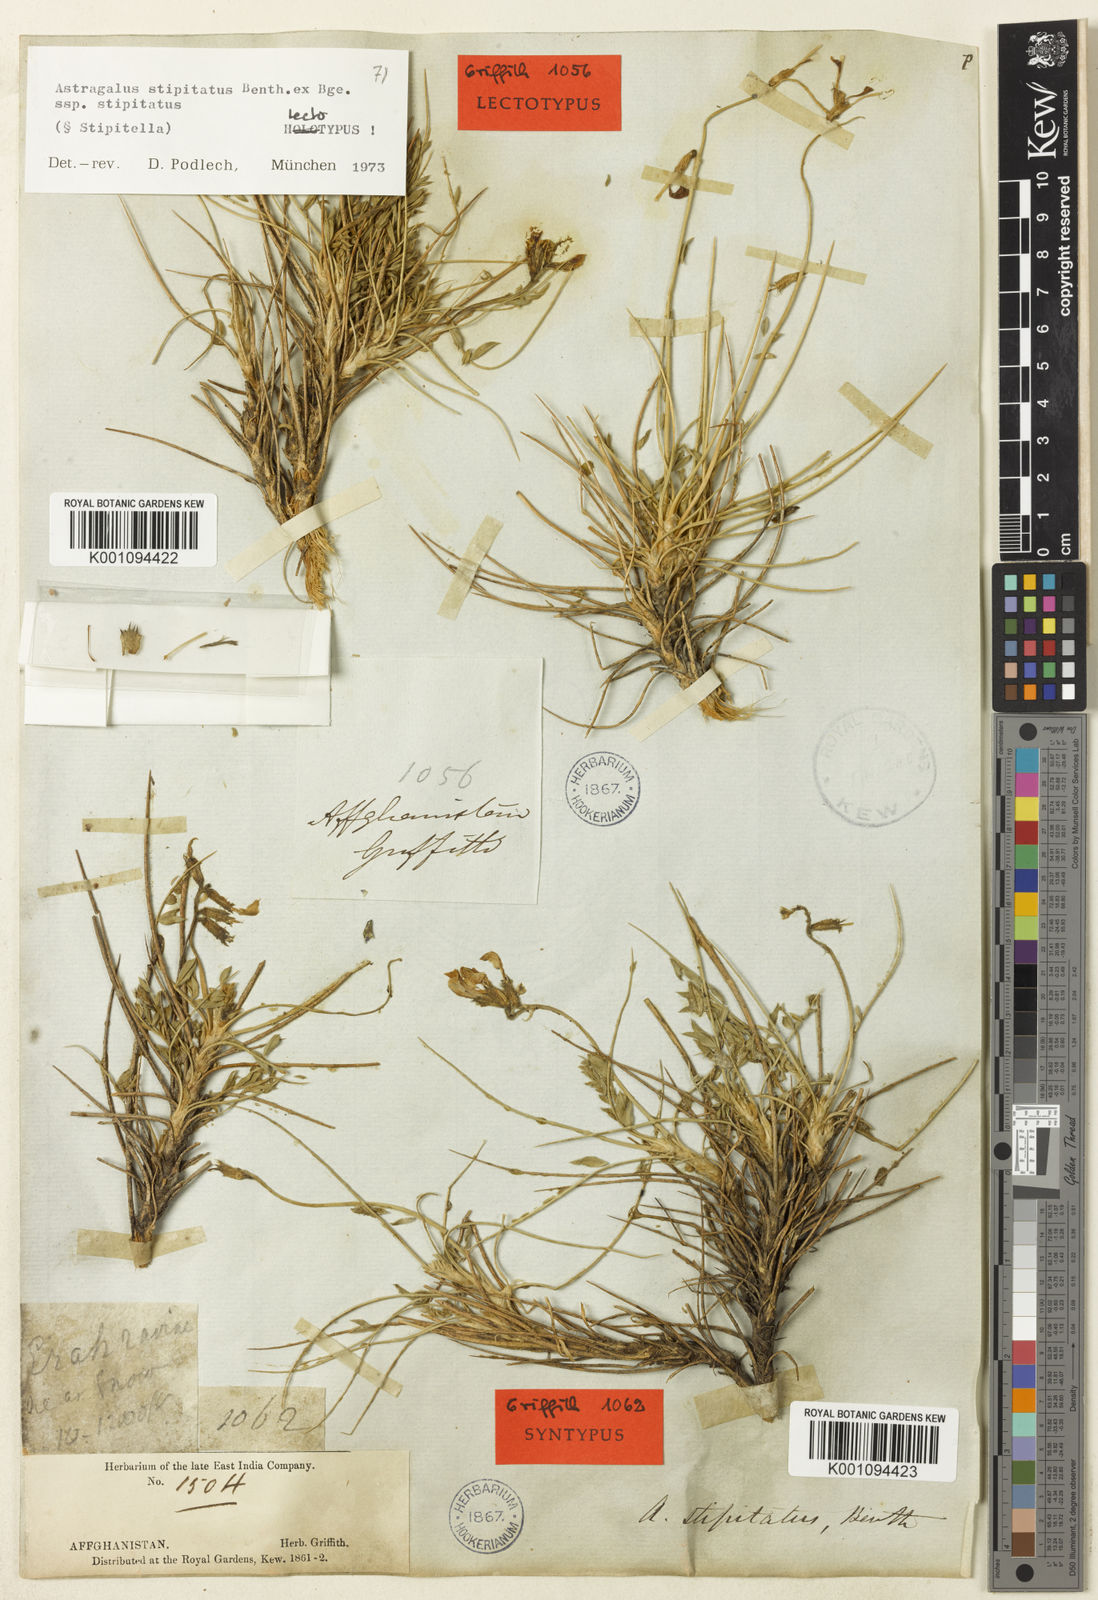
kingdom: Plantae
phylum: Tracheophyta
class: Magnoliopsida
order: Fabales
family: Fabaceae
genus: Astragalus
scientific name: Astragalus stipitatus
